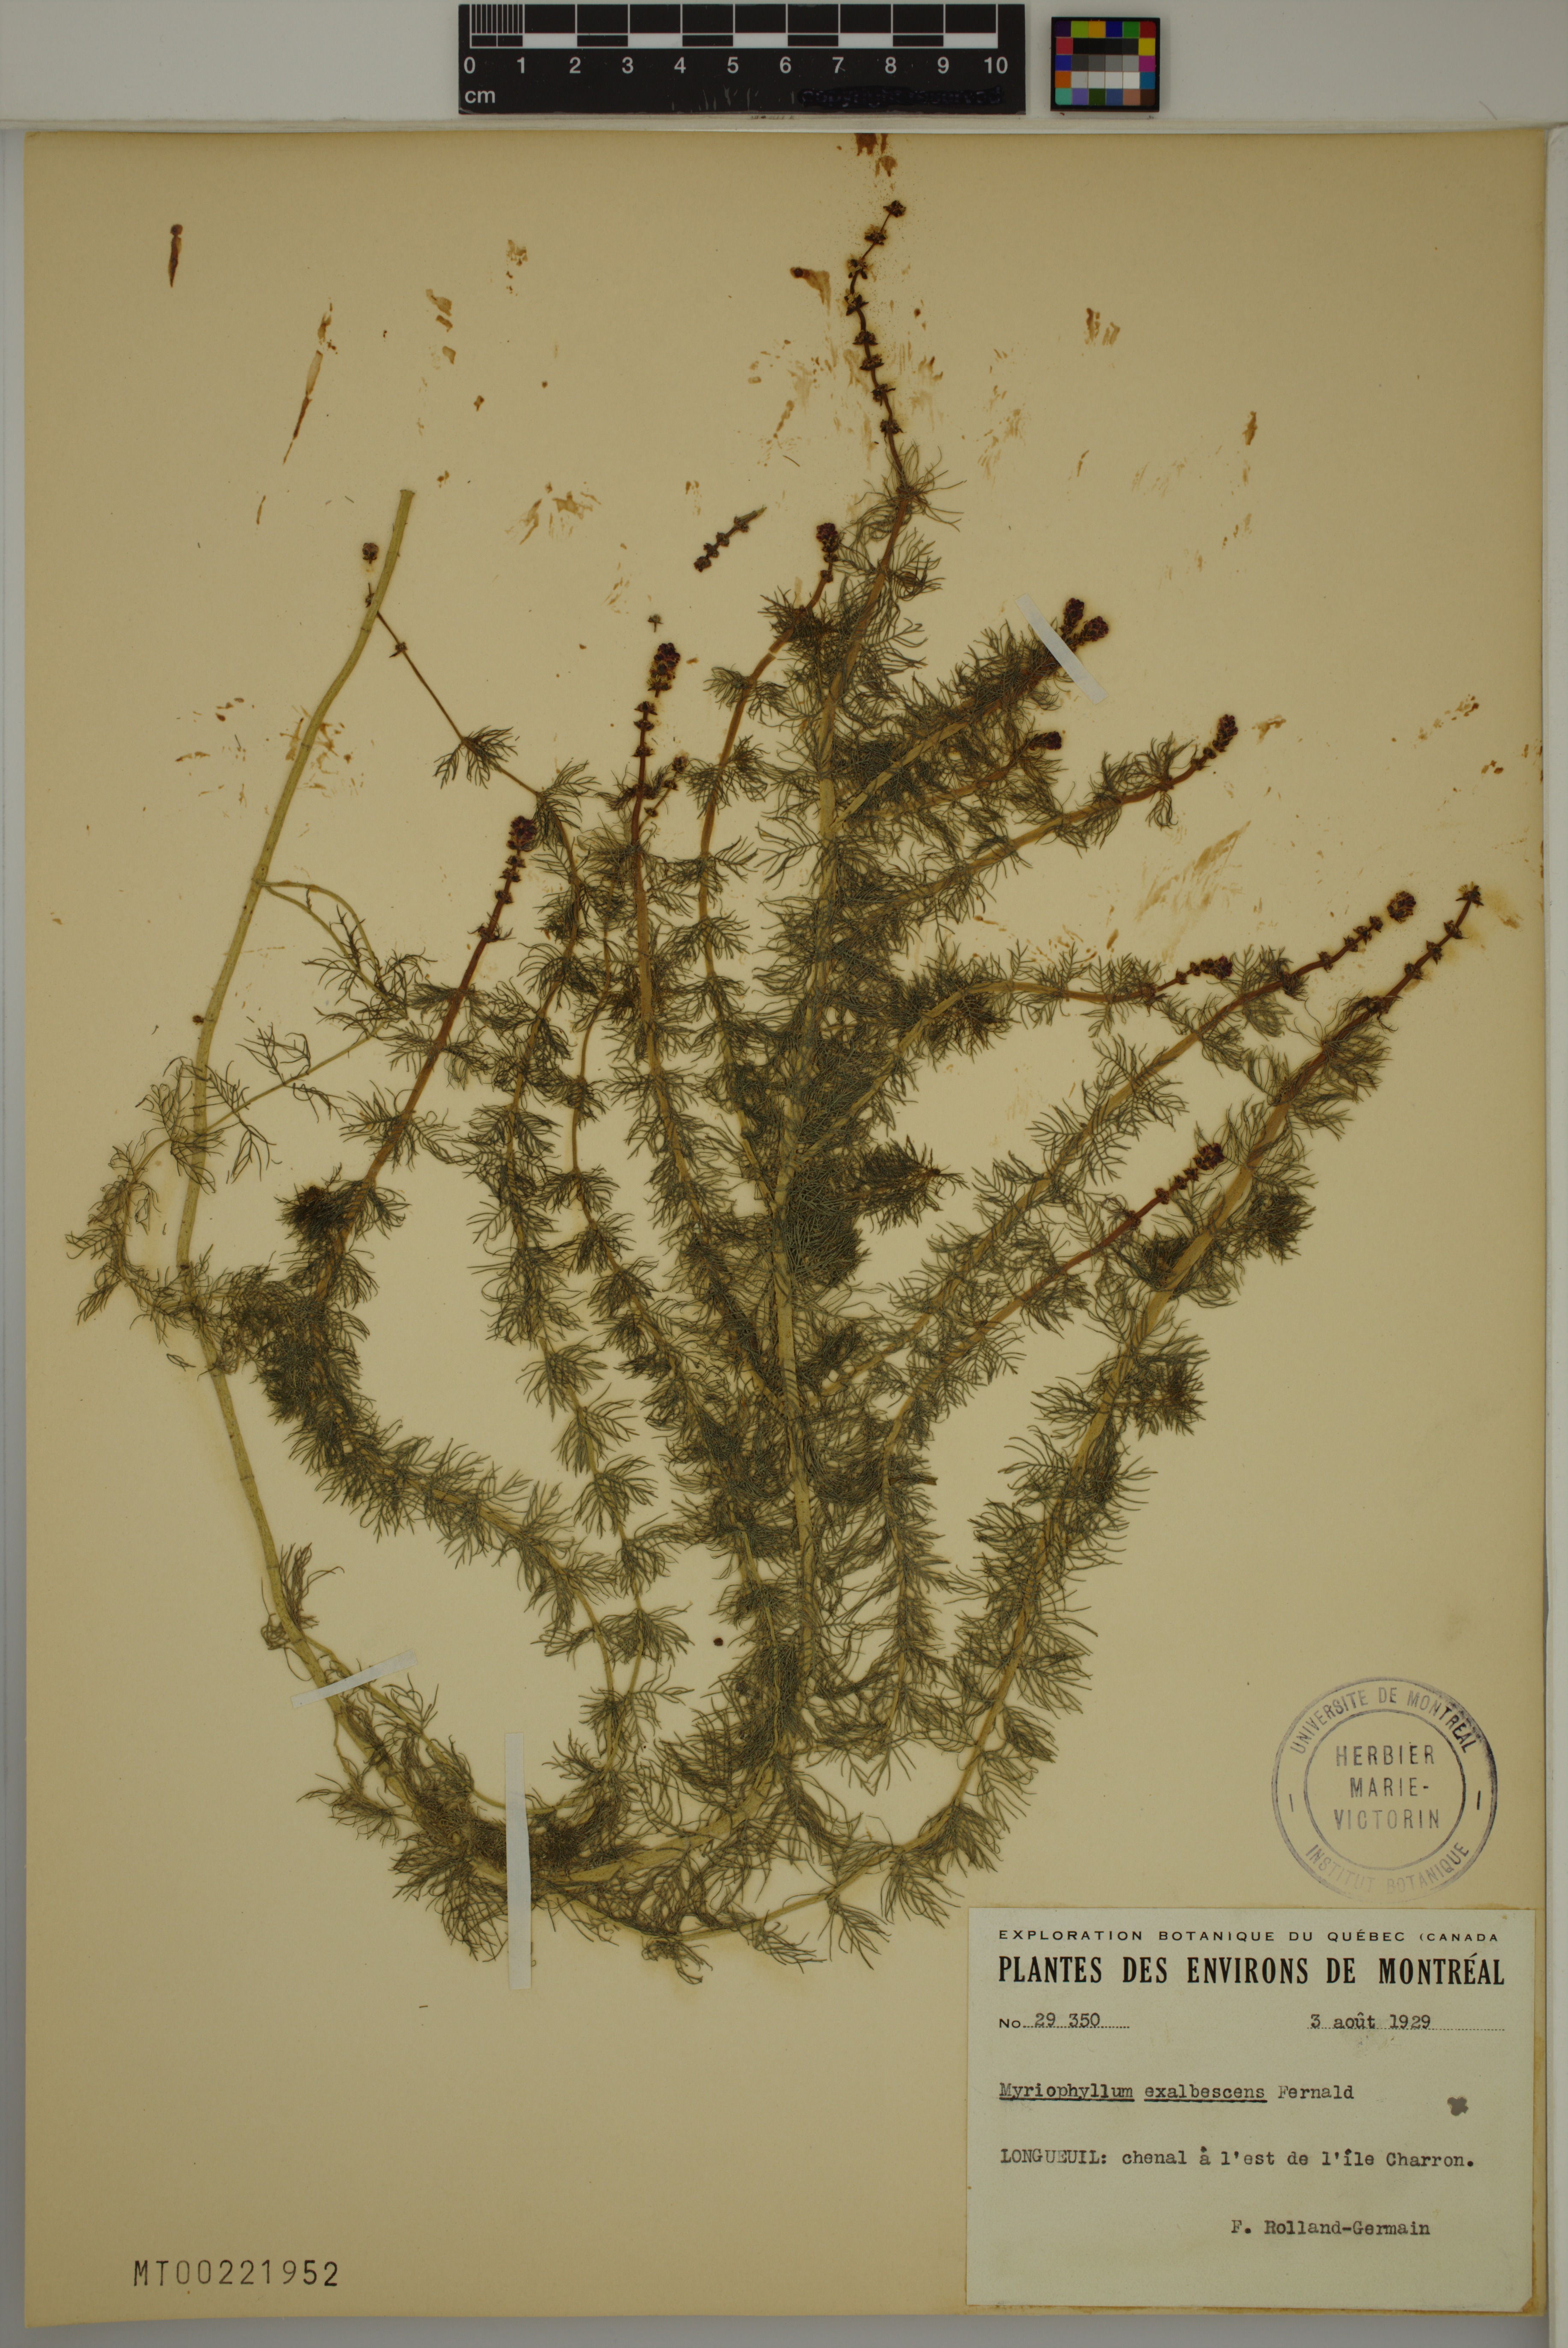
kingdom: Plantae
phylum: Tracheophyta
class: Magnoliopsida
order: Saxifragales
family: Haloragaceae
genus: Myriophyllum
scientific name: Myriophyllum sibiricum
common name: Siberian water-milfoil
